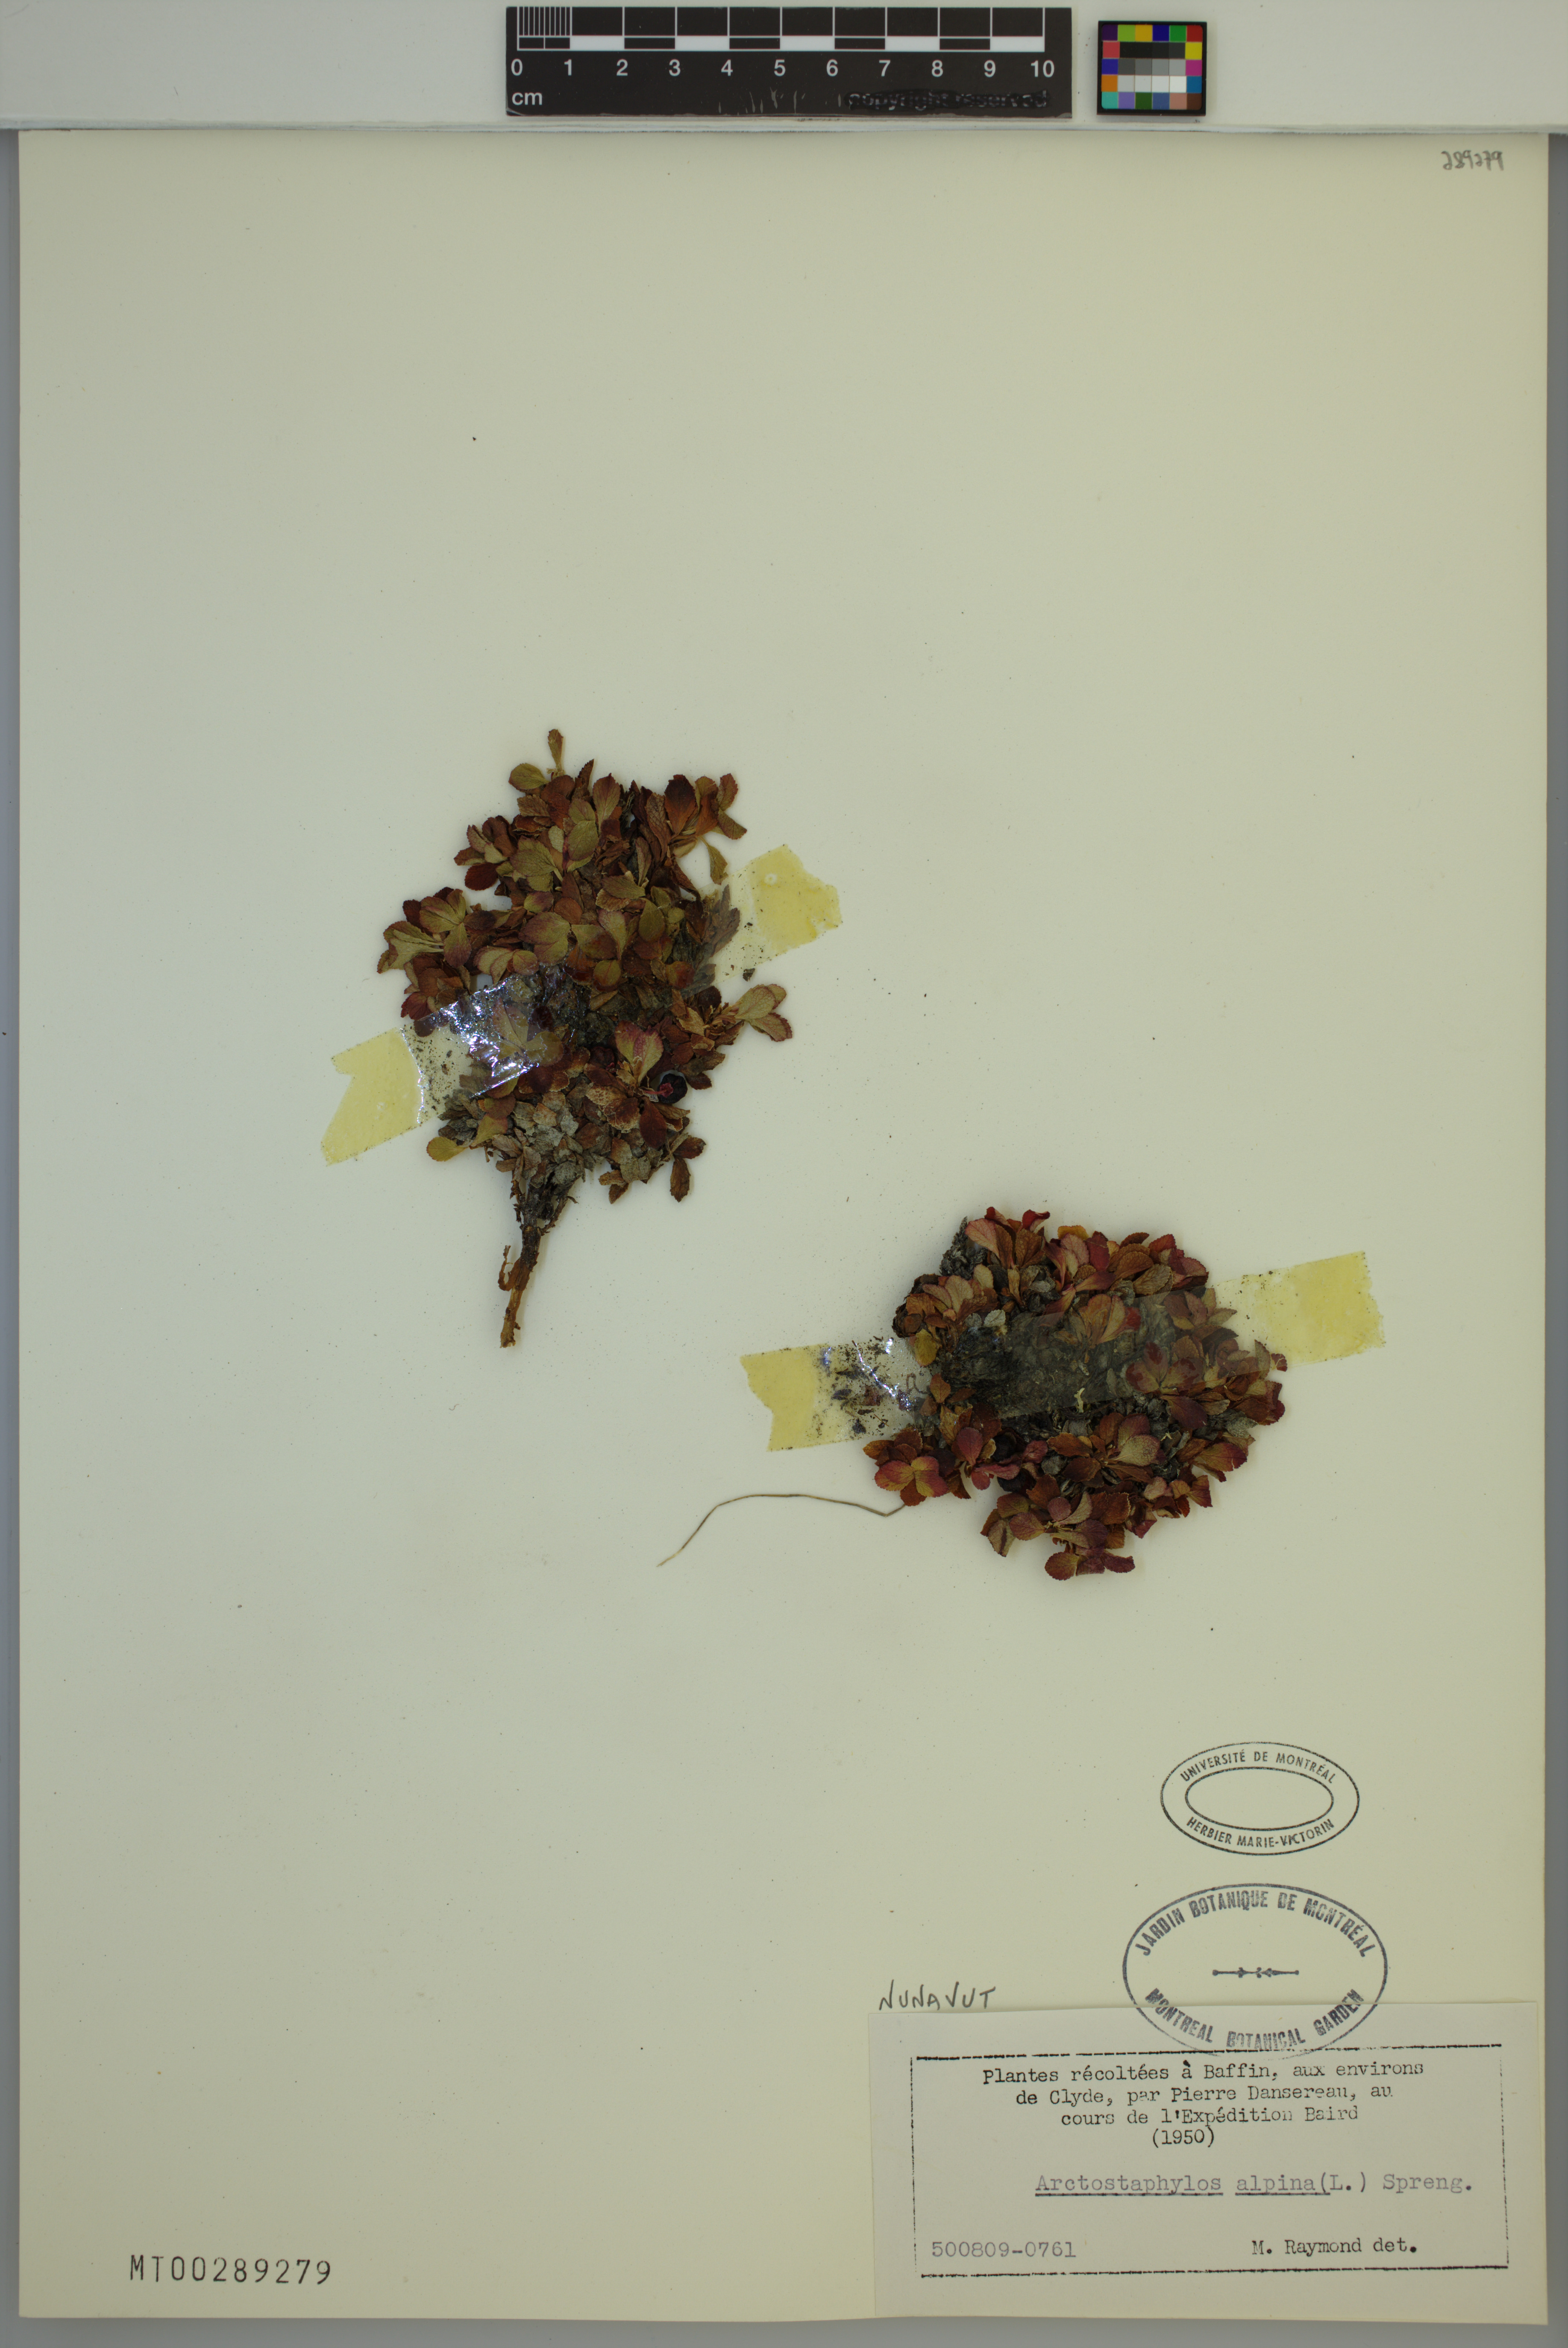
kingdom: Plantae
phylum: Tracheophyta
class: Magnoliopsida
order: Ericales
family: Ericaceae
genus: Arctostaphylos
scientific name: Arctostaphylos alpinus
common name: Alpine bearberry
